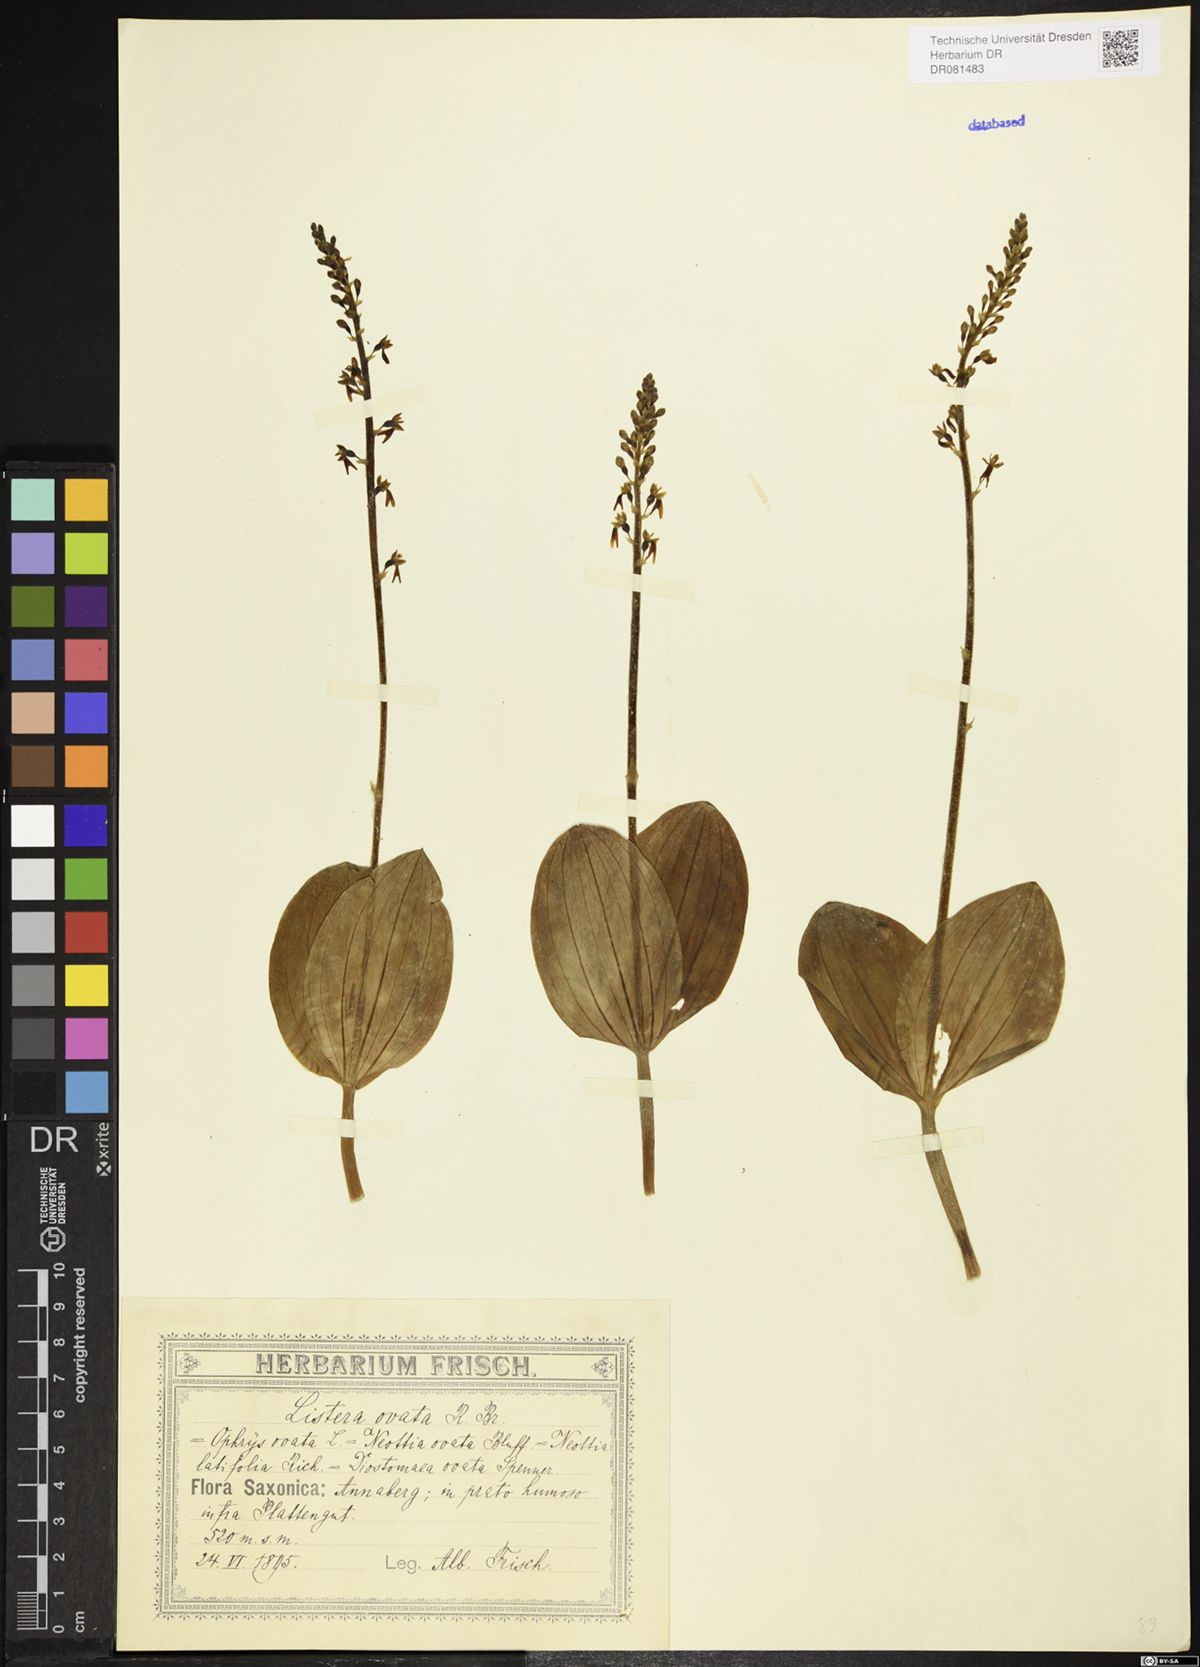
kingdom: Plantae
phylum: Tracheophyta
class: Liliopsida
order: Asparagales
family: Orchidaceae
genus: Neottia
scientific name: Neottia ovata
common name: Common twayblade
